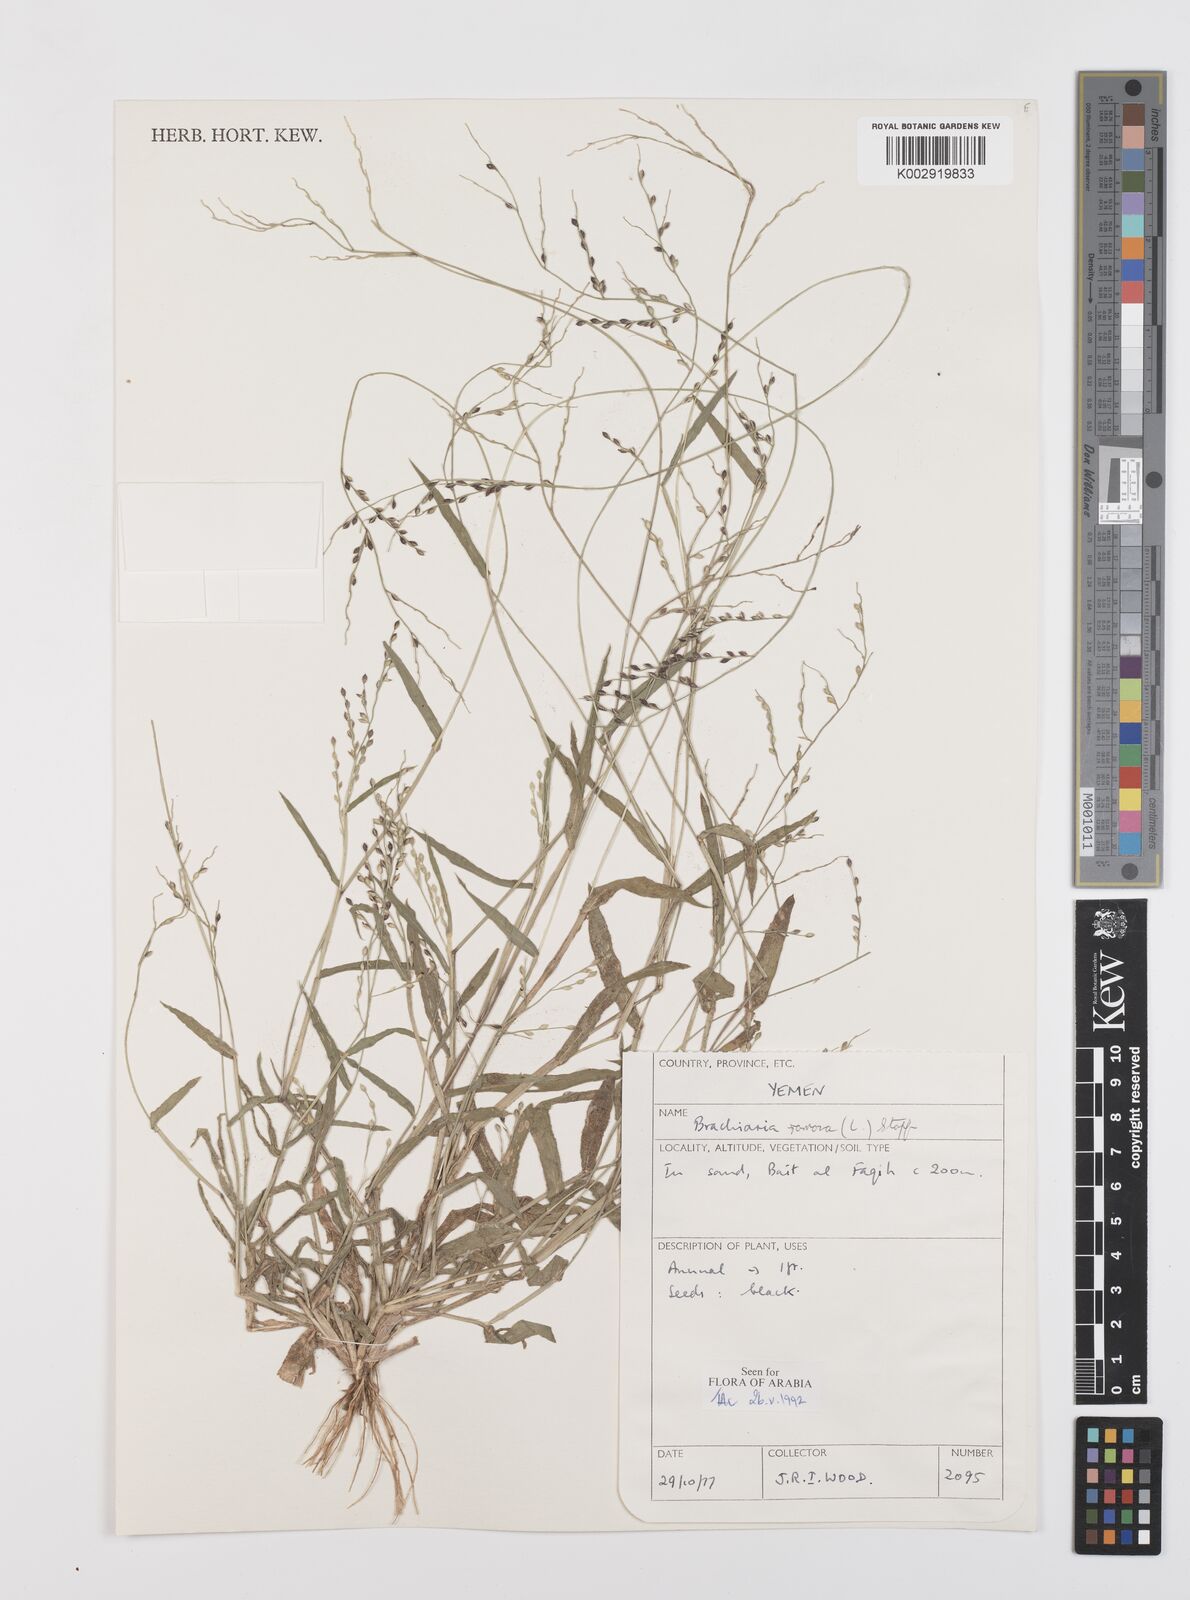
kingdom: Plantae
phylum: Tracheophyta
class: Liliopsida
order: Poales
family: Poaceae
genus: Urochloa
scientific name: Urochloa ramosa
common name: Browntop millet
